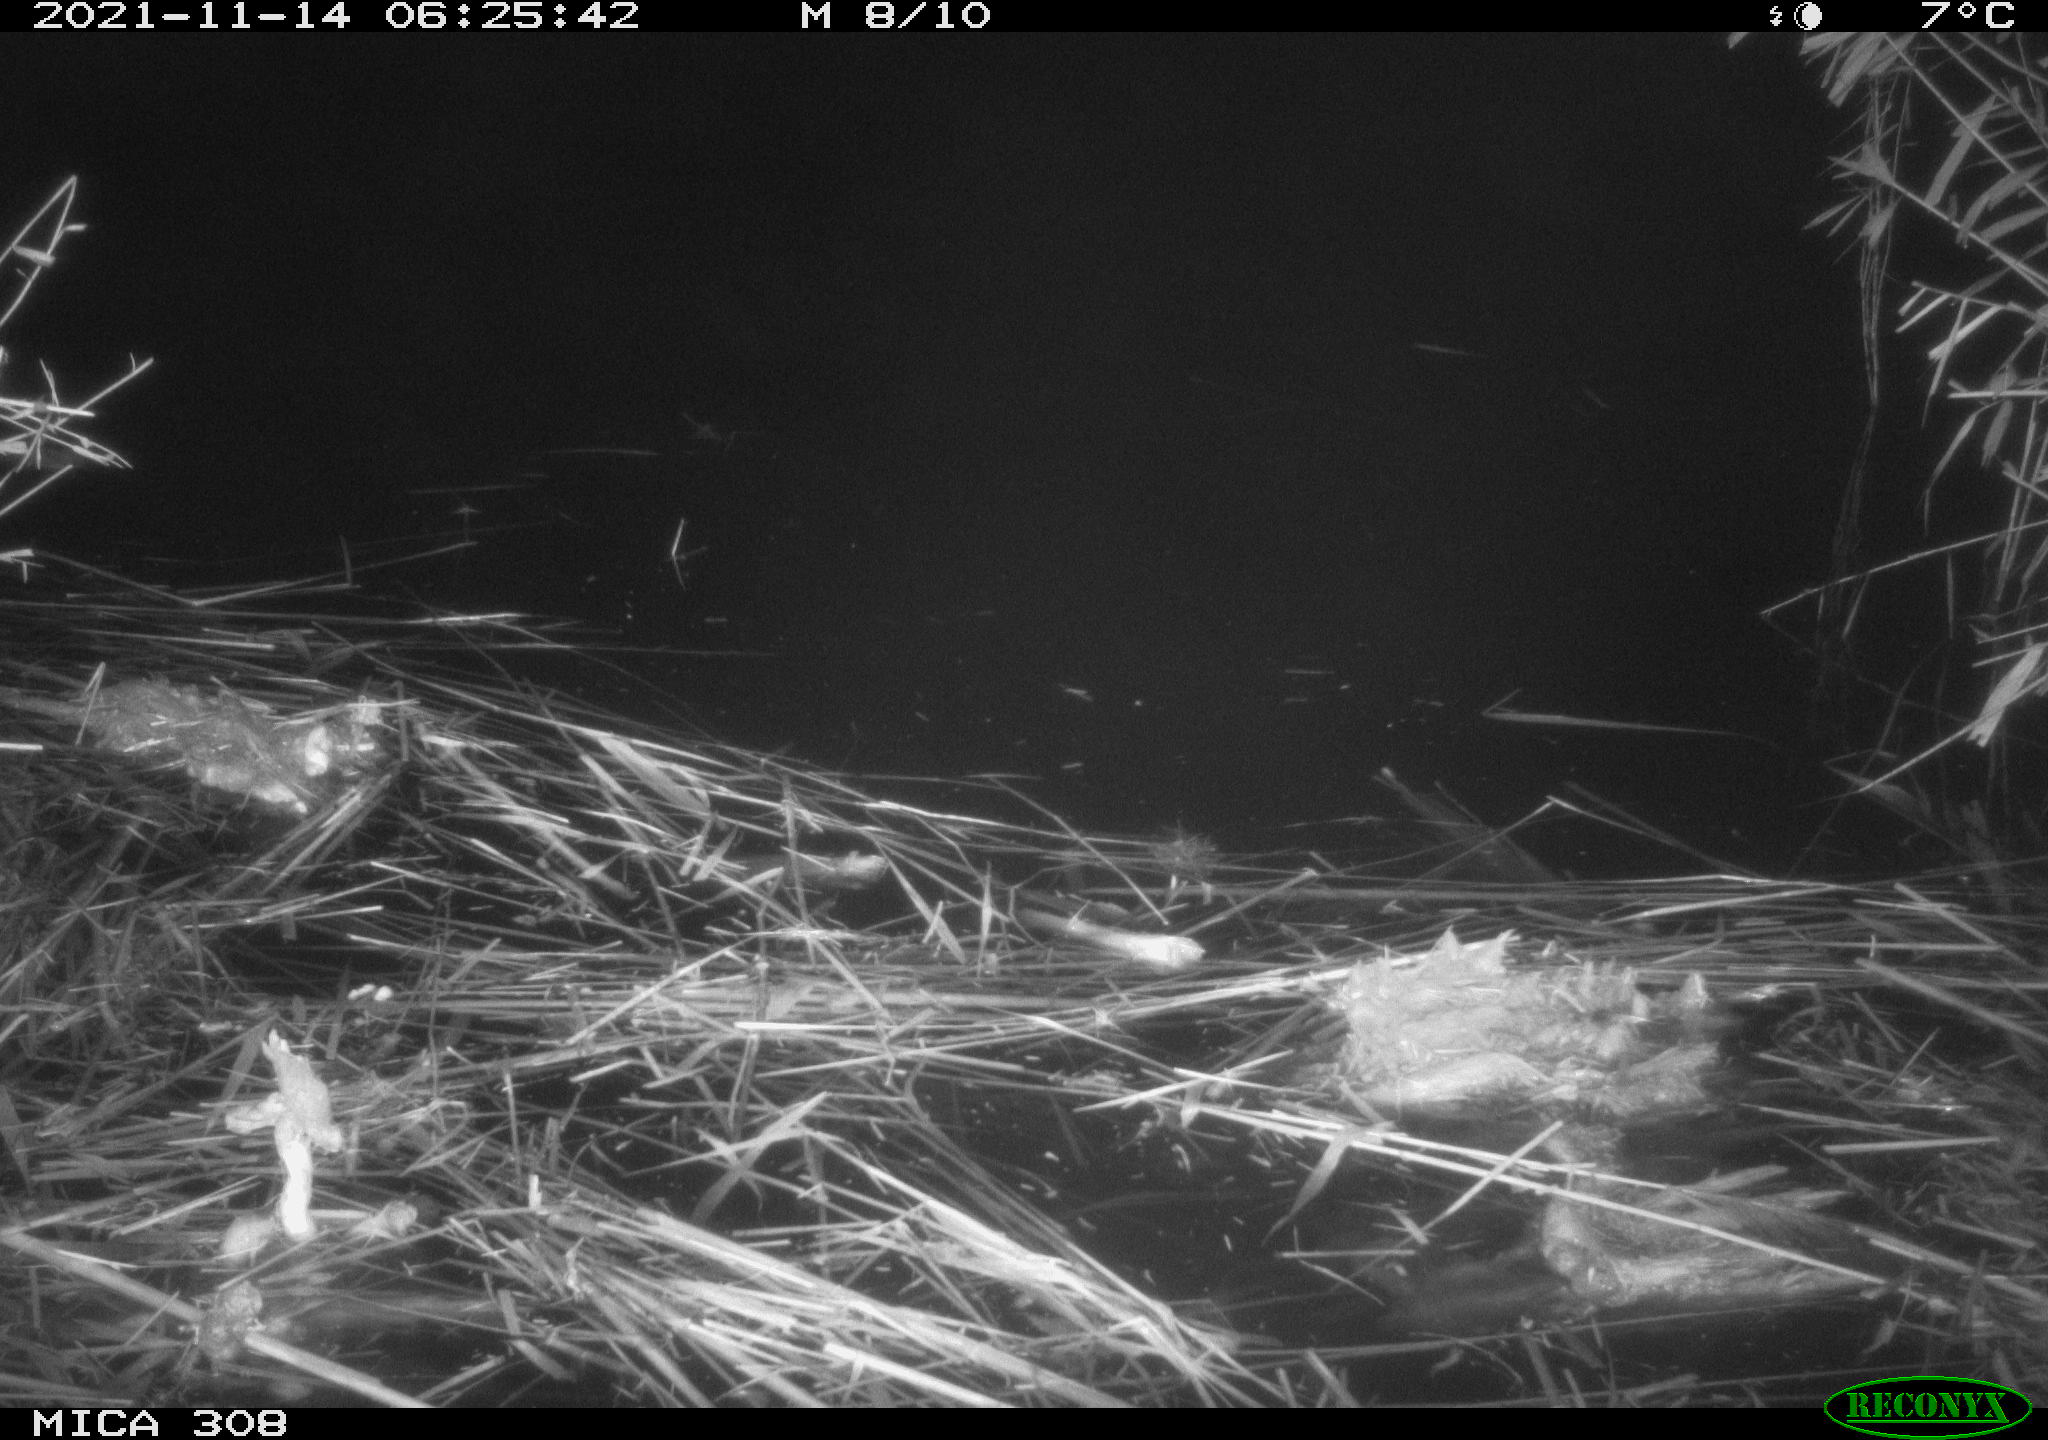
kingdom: Animalia
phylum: Chordata
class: Mammalia
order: Rodentia
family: Muridae
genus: Rattus
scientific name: Rattus norvegicus
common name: Brown rat
